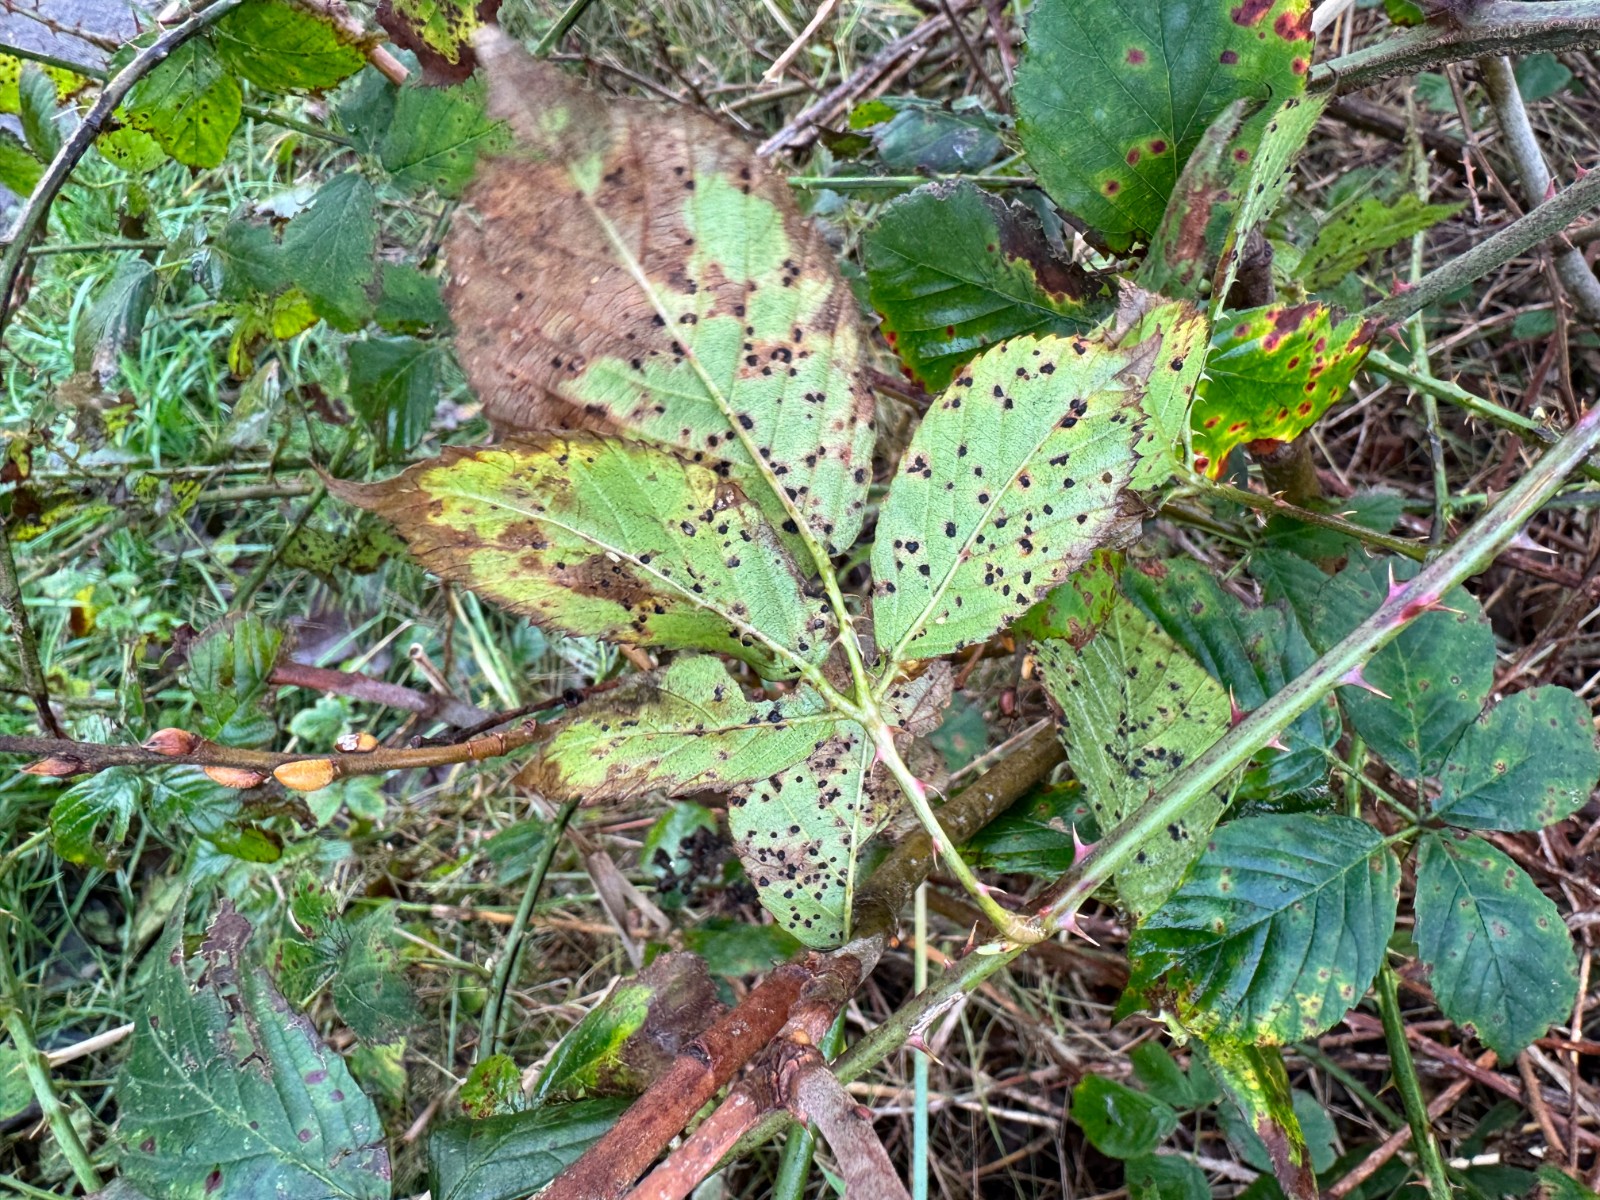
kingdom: Fungi
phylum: Basidiomycota
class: Pucciniomycetes
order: Pucciniales
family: Phragmidiaceae
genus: Phragmidium
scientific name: Phragmidium violaceum
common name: violet flercellerust
